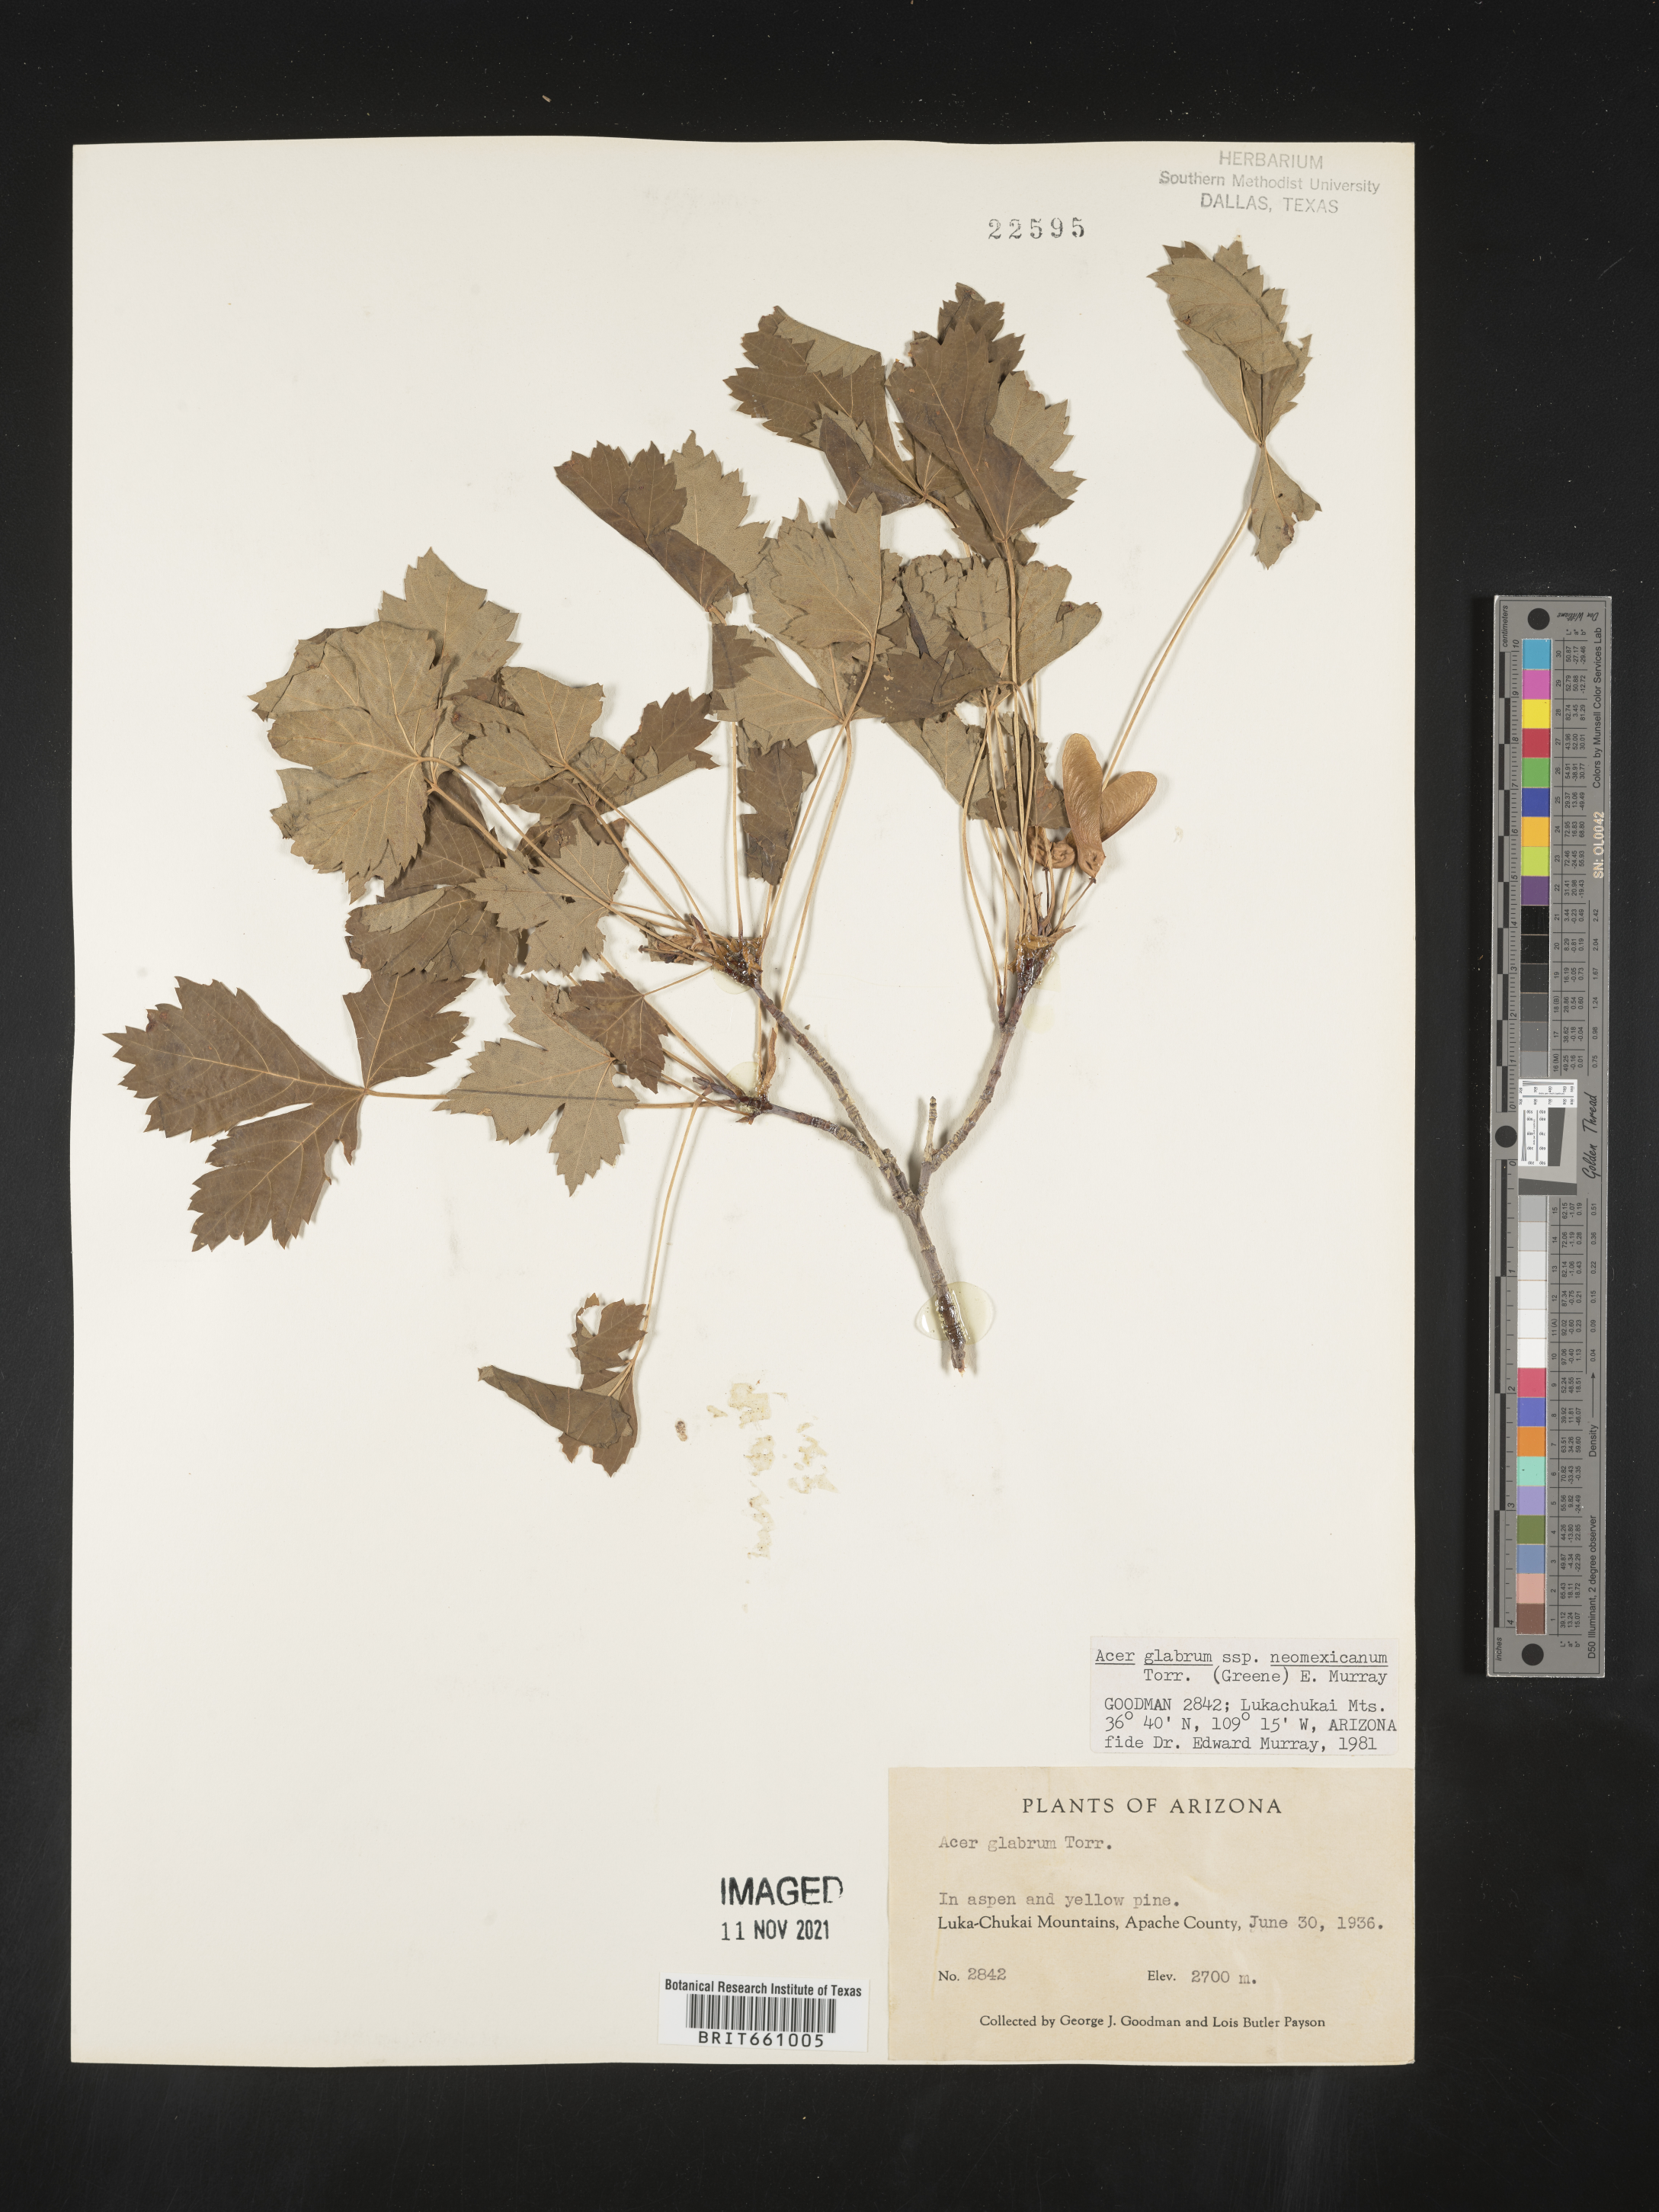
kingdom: Plantae
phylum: Tracheophyta
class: Magnoliopsida
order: Sapindales
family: Sapindaceae
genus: Acer
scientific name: Acer glabrum
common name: Rocky mountain maple
